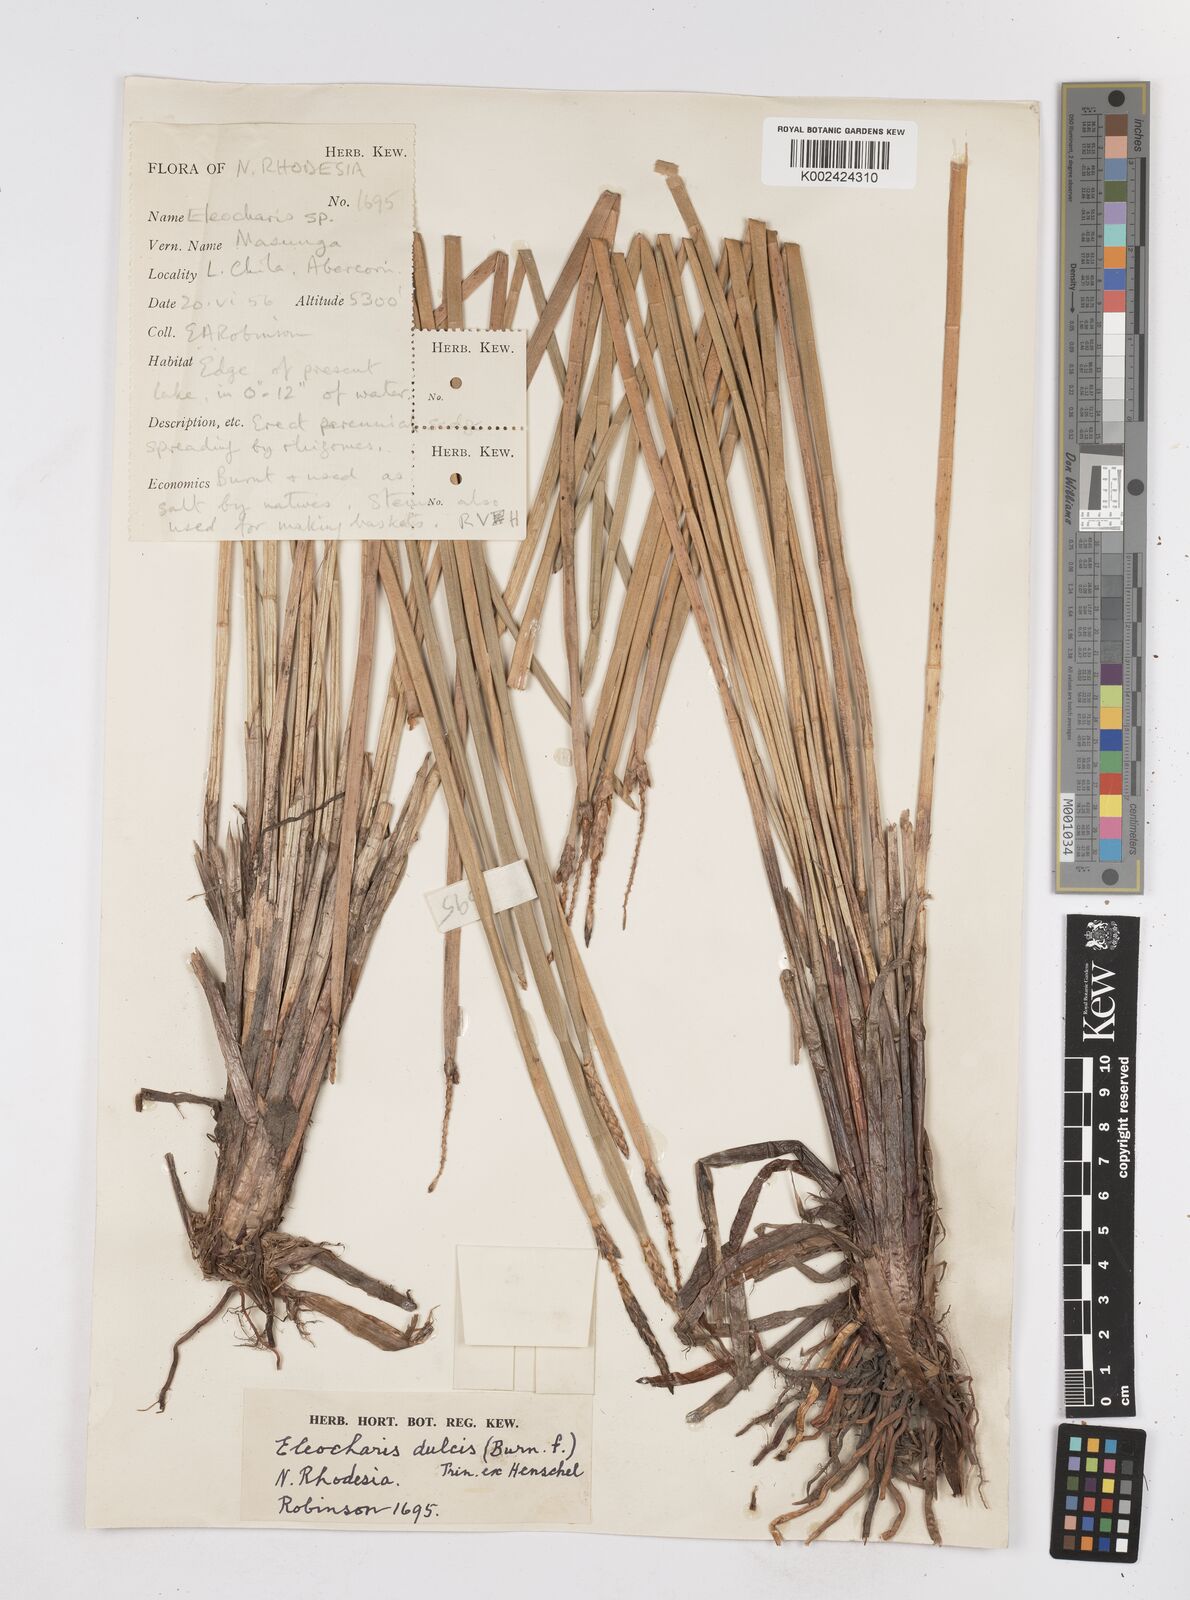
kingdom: Plantae
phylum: Tracheophyta
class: Liliopsida
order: Poales
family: Cyperaceae
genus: Eleocharis
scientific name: Eleocharis dulcis
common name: Chinese water chestnut
